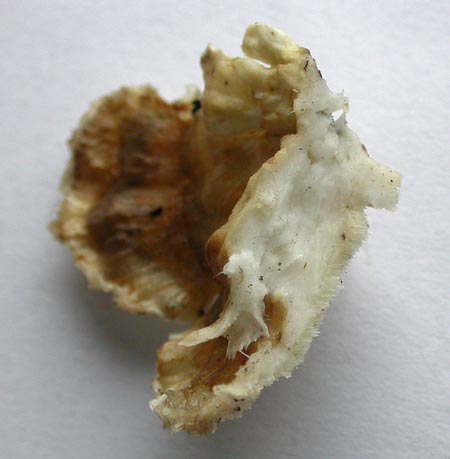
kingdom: Fungi
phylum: Basidiomycota
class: Agaricomycetes
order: Polyporales
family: Polyporaceae
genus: Trametes
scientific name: Trametes versicolor
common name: broget læderporesvamp
